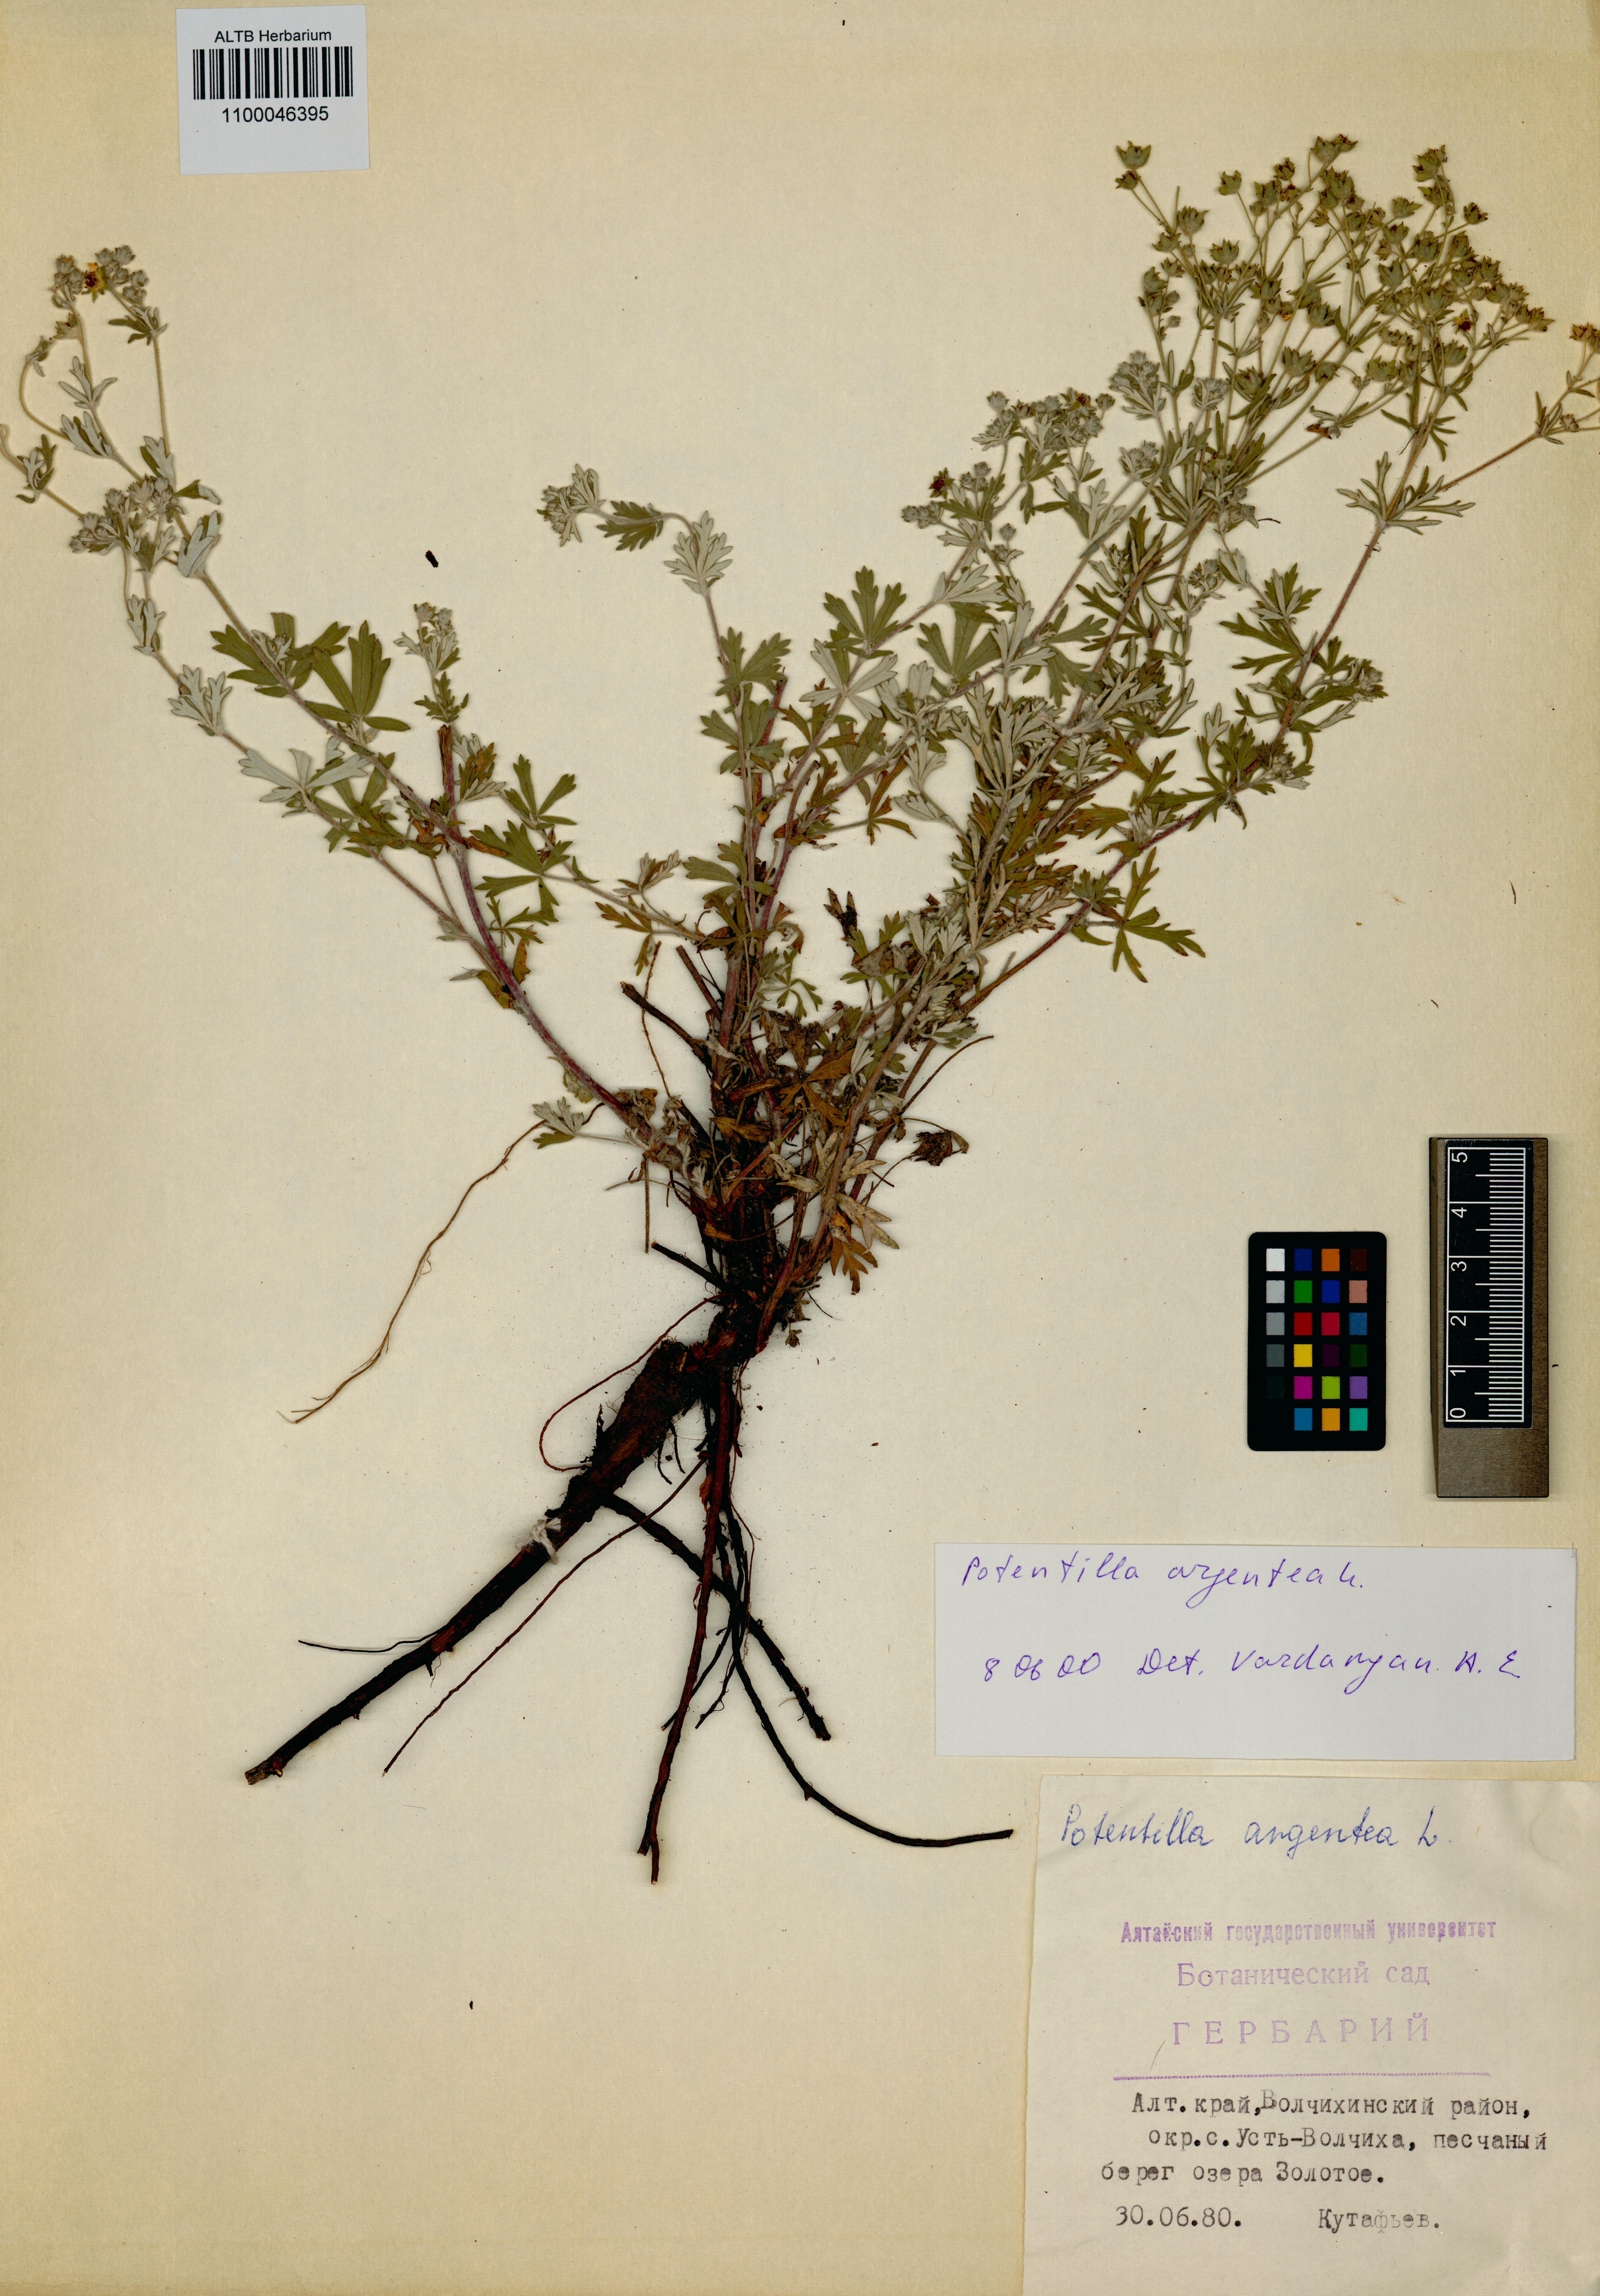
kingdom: Plantae
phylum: Tracheophyta
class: Magnoliopsida
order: Rosales
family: Rosaceae
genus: Potentilla
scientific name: Potentilla argentea
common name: Hoary cinquefoil
